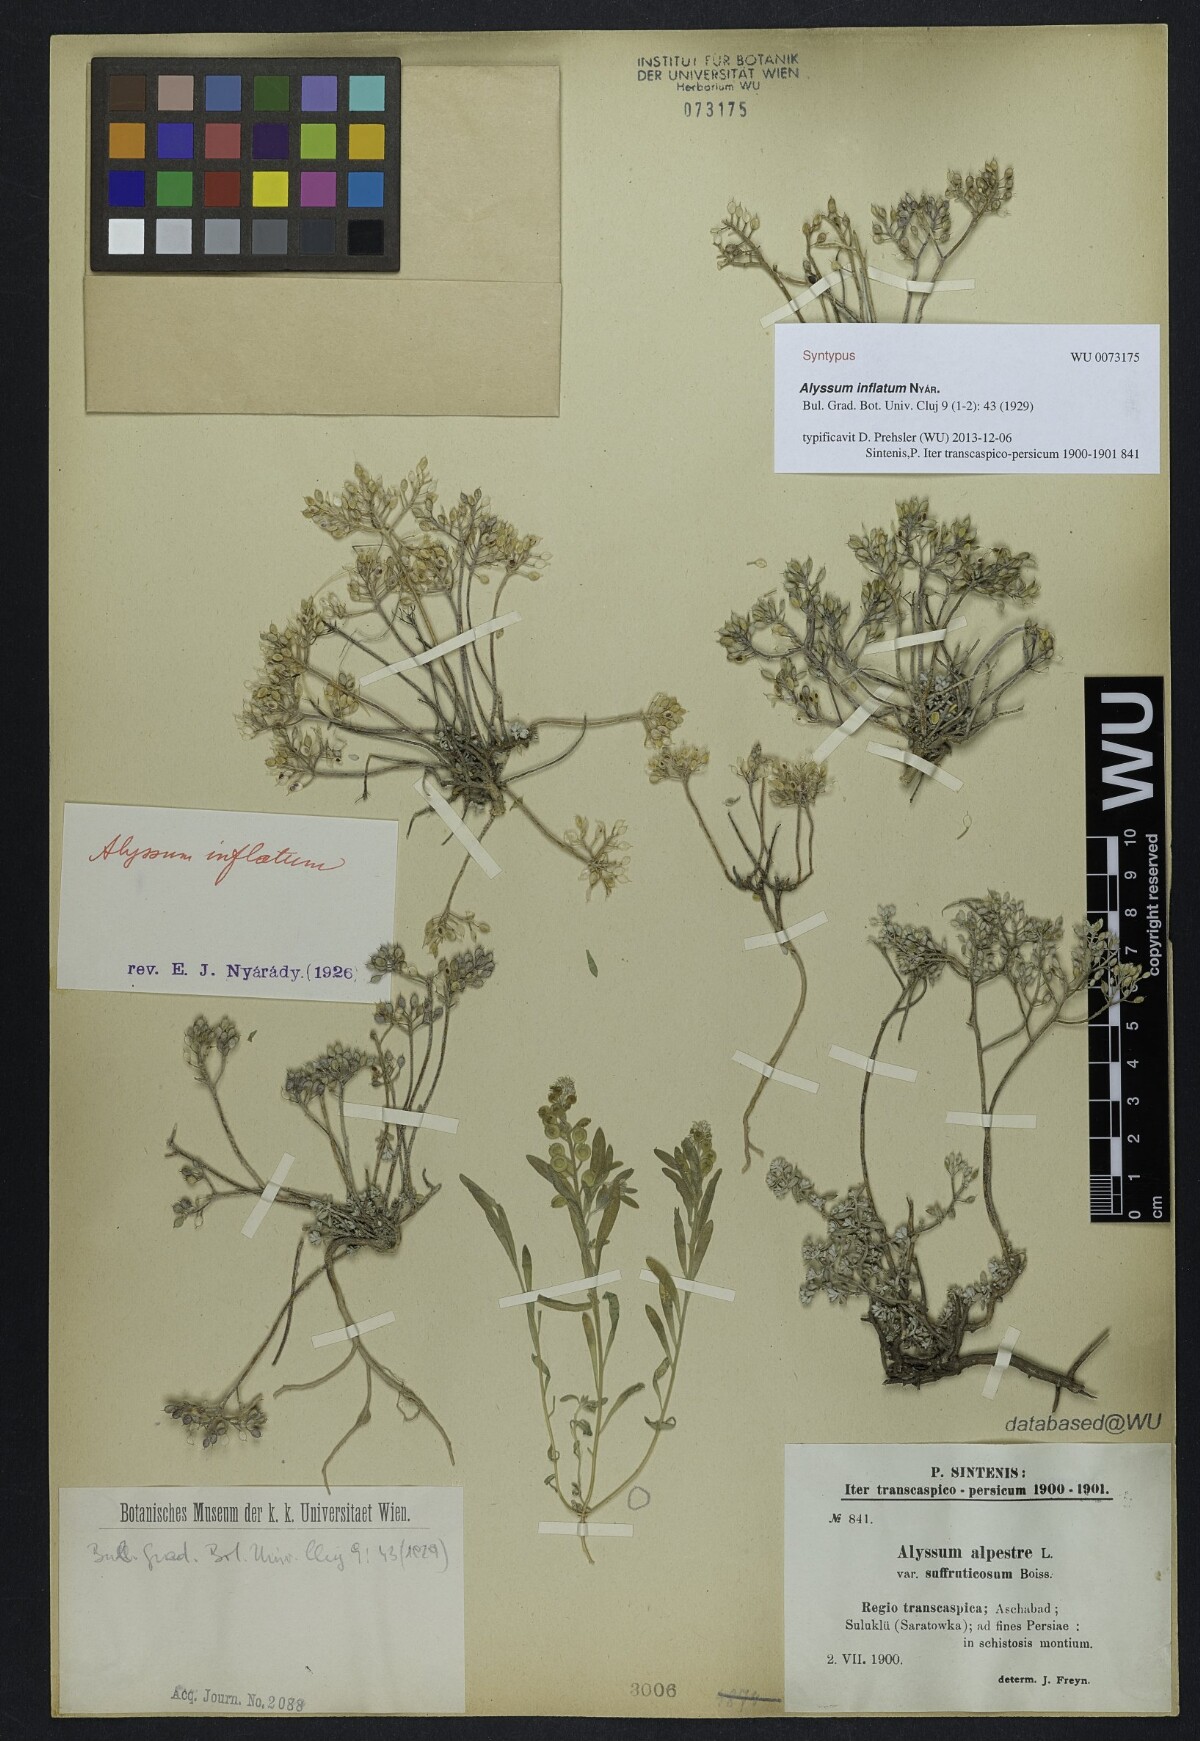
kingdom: Plantae
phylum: Tracheophyta
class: Magnoliopsida
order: Brassicales
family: Brassicaceae
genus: Odontarrhena
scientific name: Odontarrhena inflata
